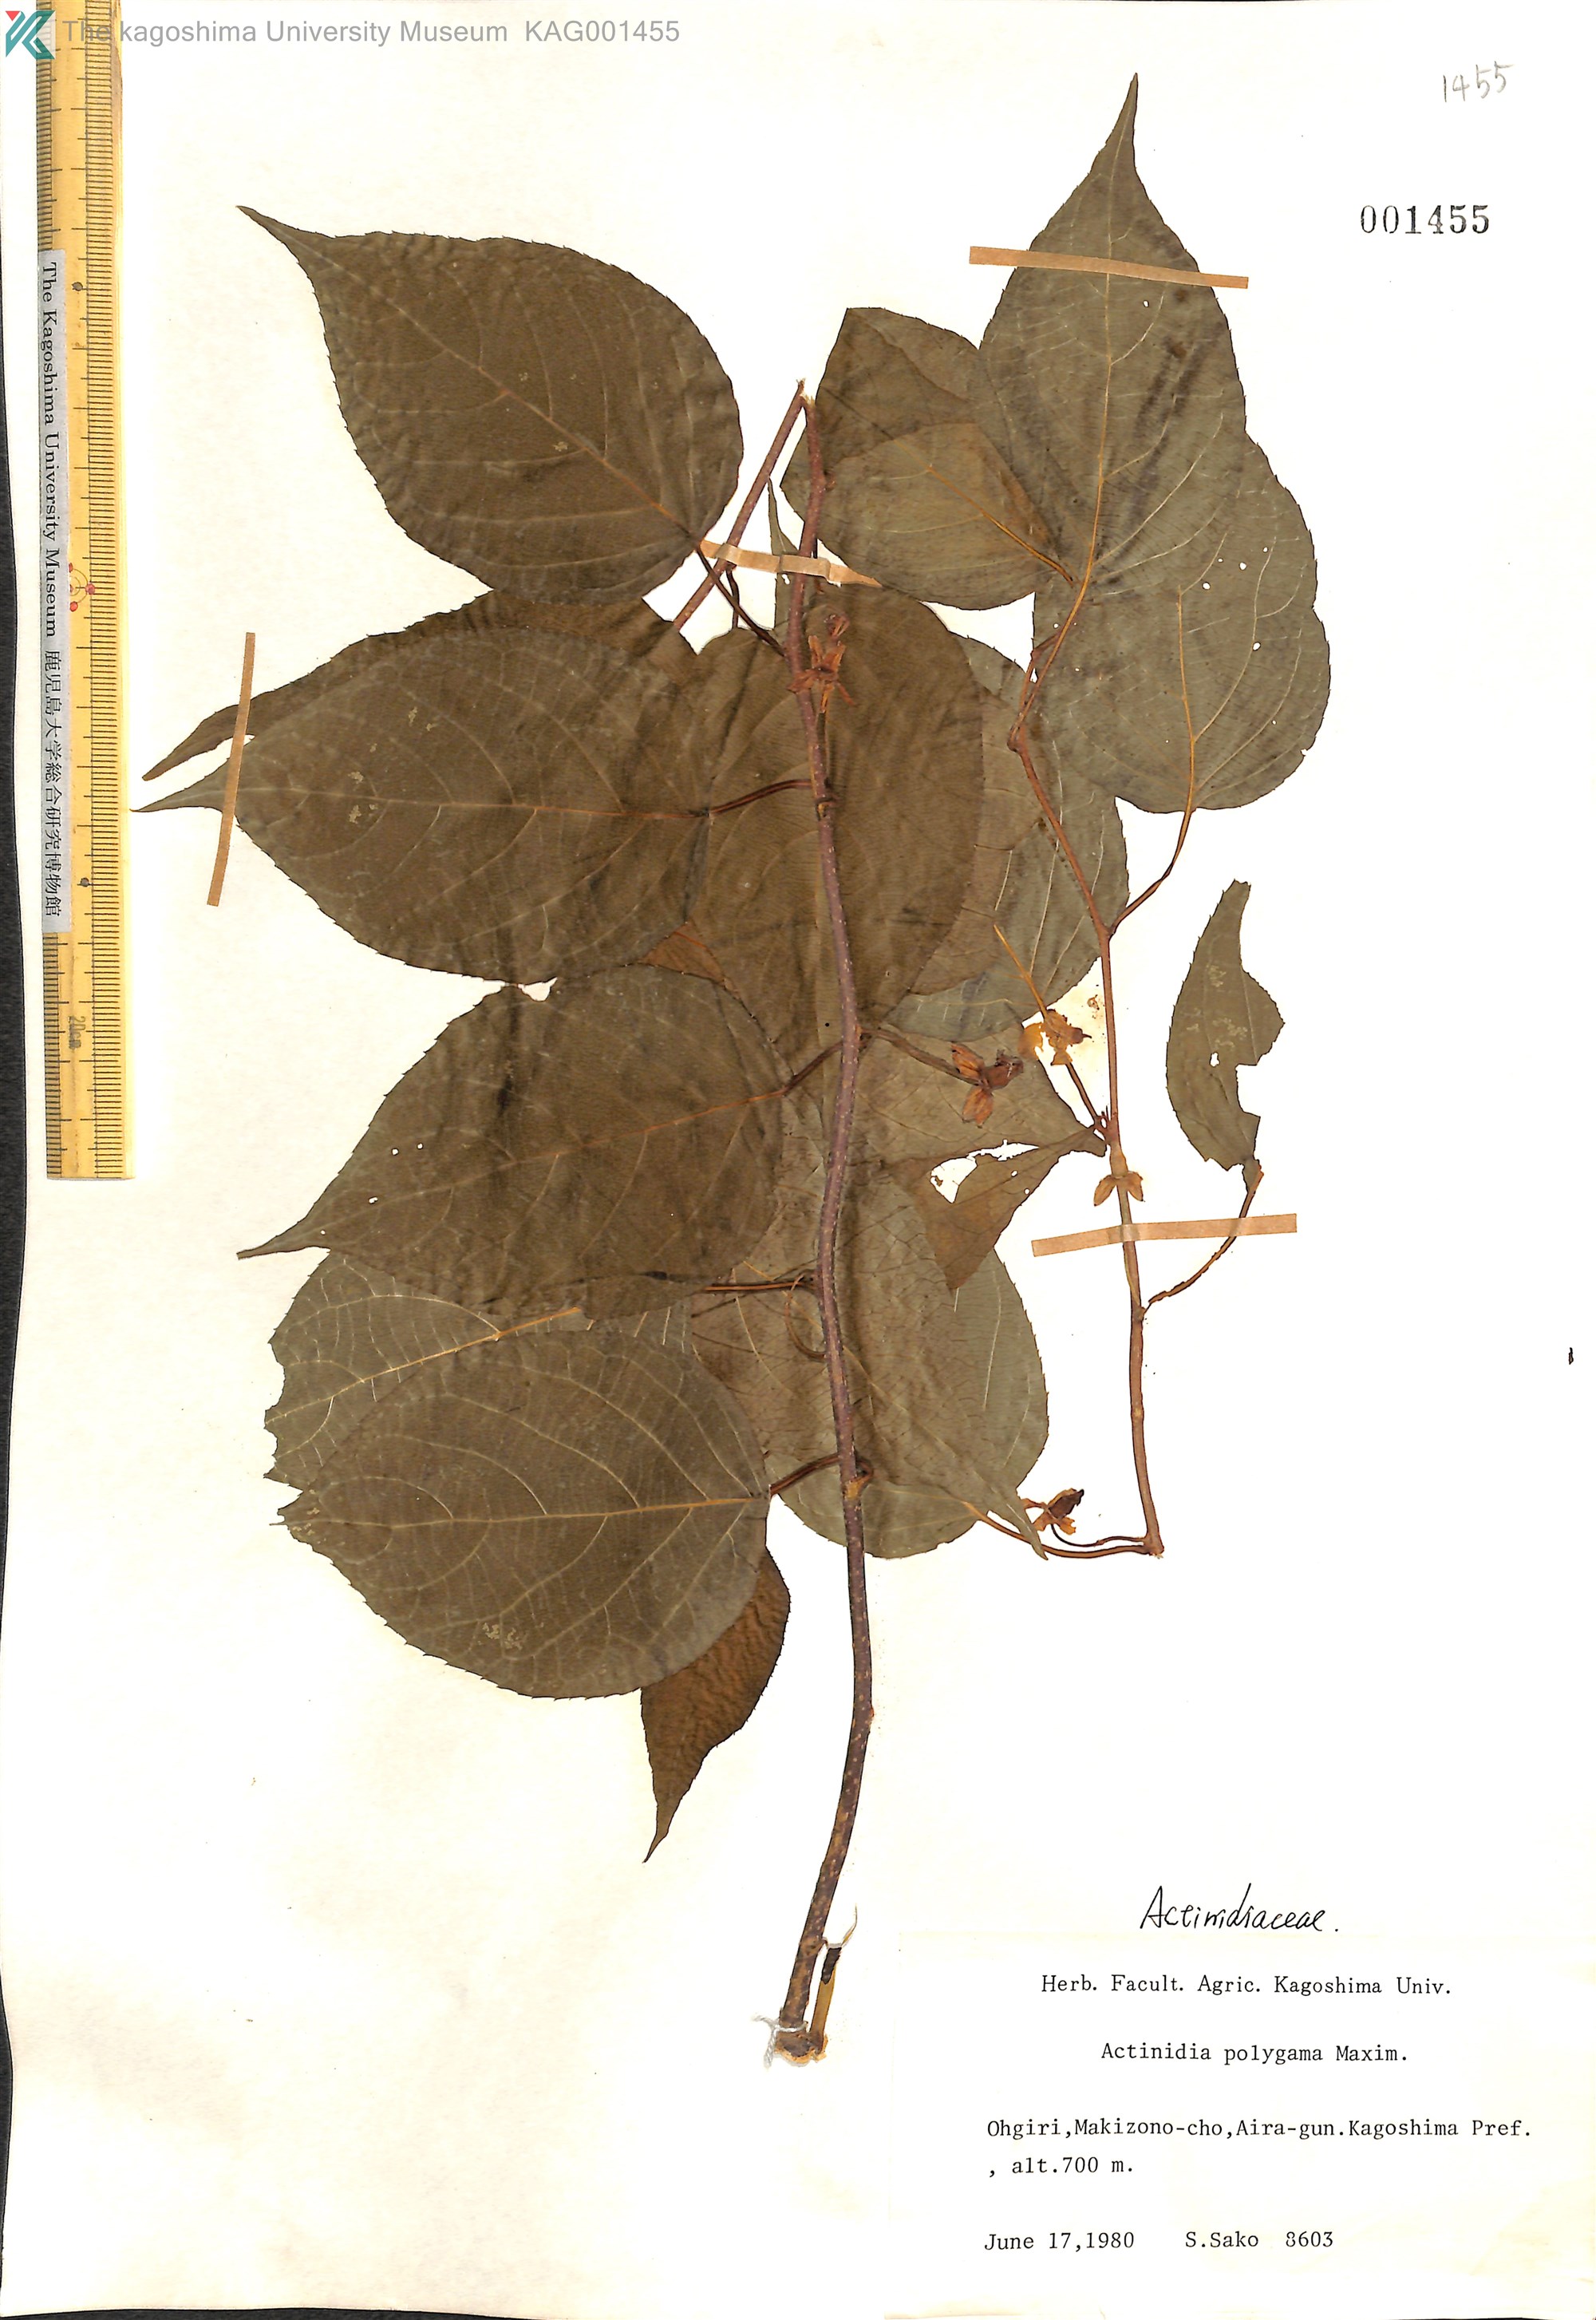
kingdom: Plantae
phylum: Tracheophyta
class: Magnoliopsida
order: Ericales
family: Actinidiaceae
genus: Actinidia
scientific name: Actinidia polygama
